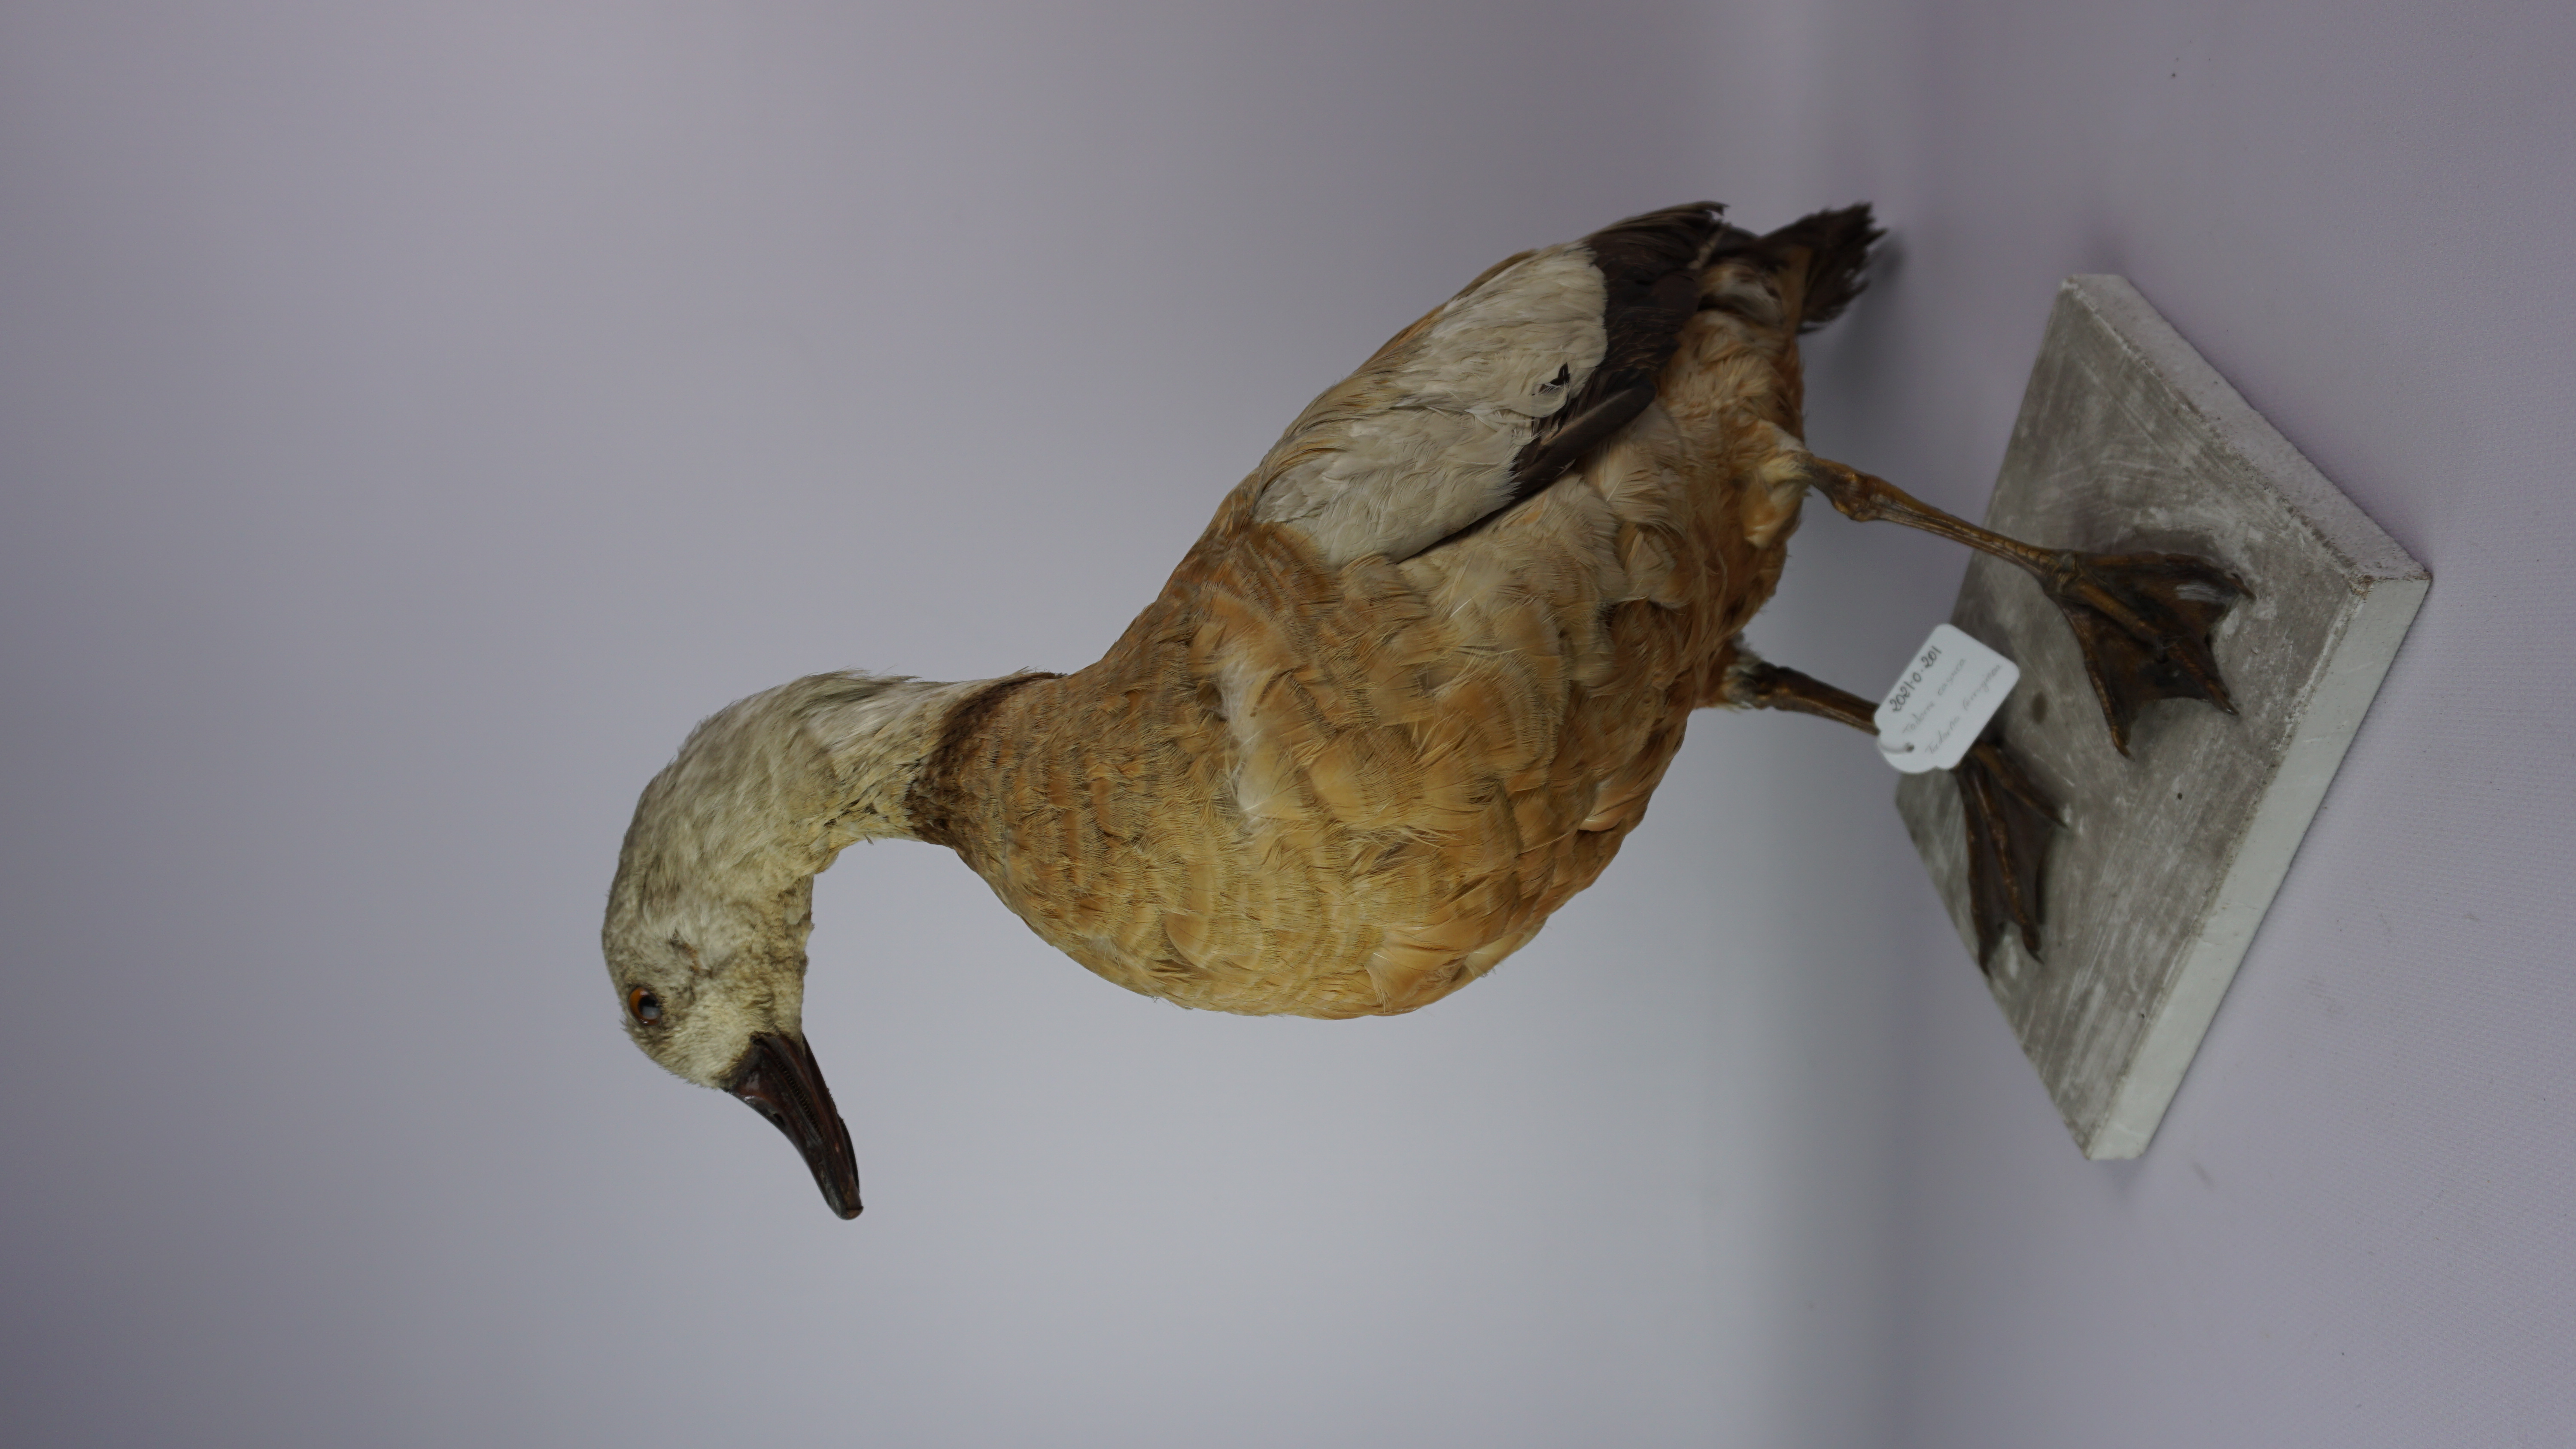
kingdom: Animalia
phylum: Chordata
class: Aves
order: Anseriformes
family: Anatidae
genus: Tadorna
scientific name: Tadorna tadorna
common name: Common shelduck
